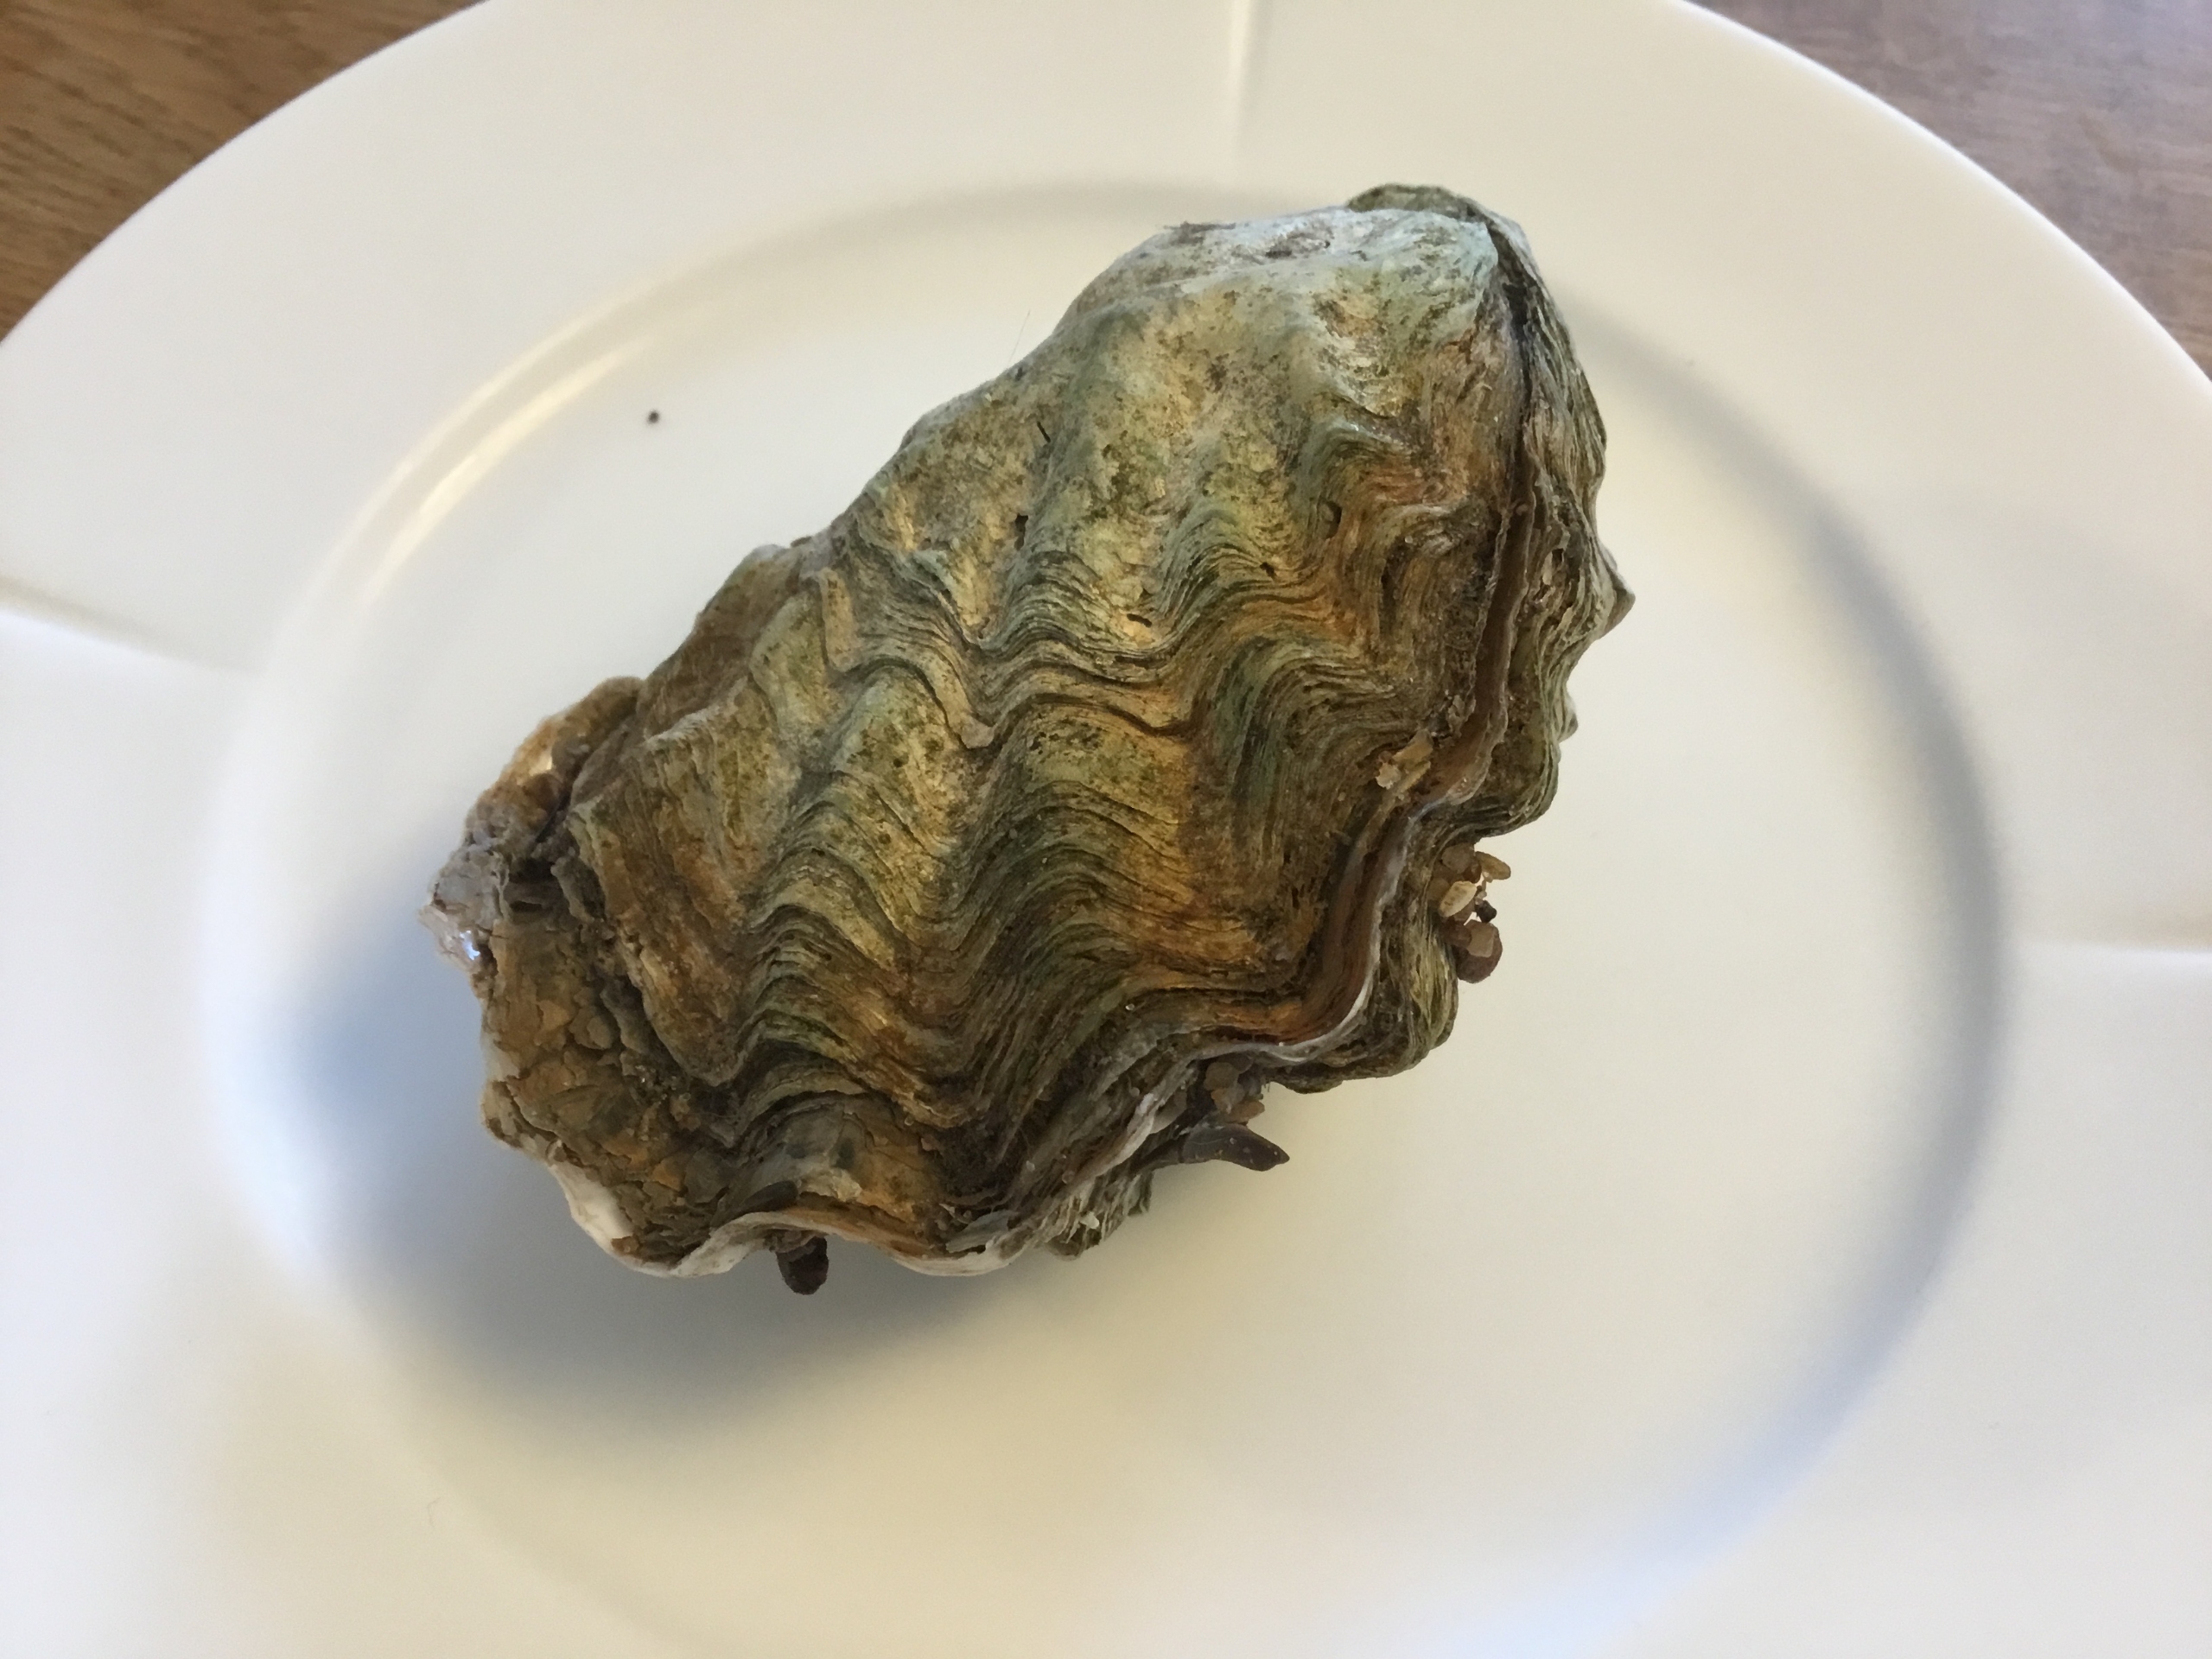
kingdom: Animalia
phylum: Mollusca
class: Bivalvia
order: Ostreida
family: Ostreidae
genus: Magallana
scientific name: Magallana gigas
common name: Stillehavsøsters
